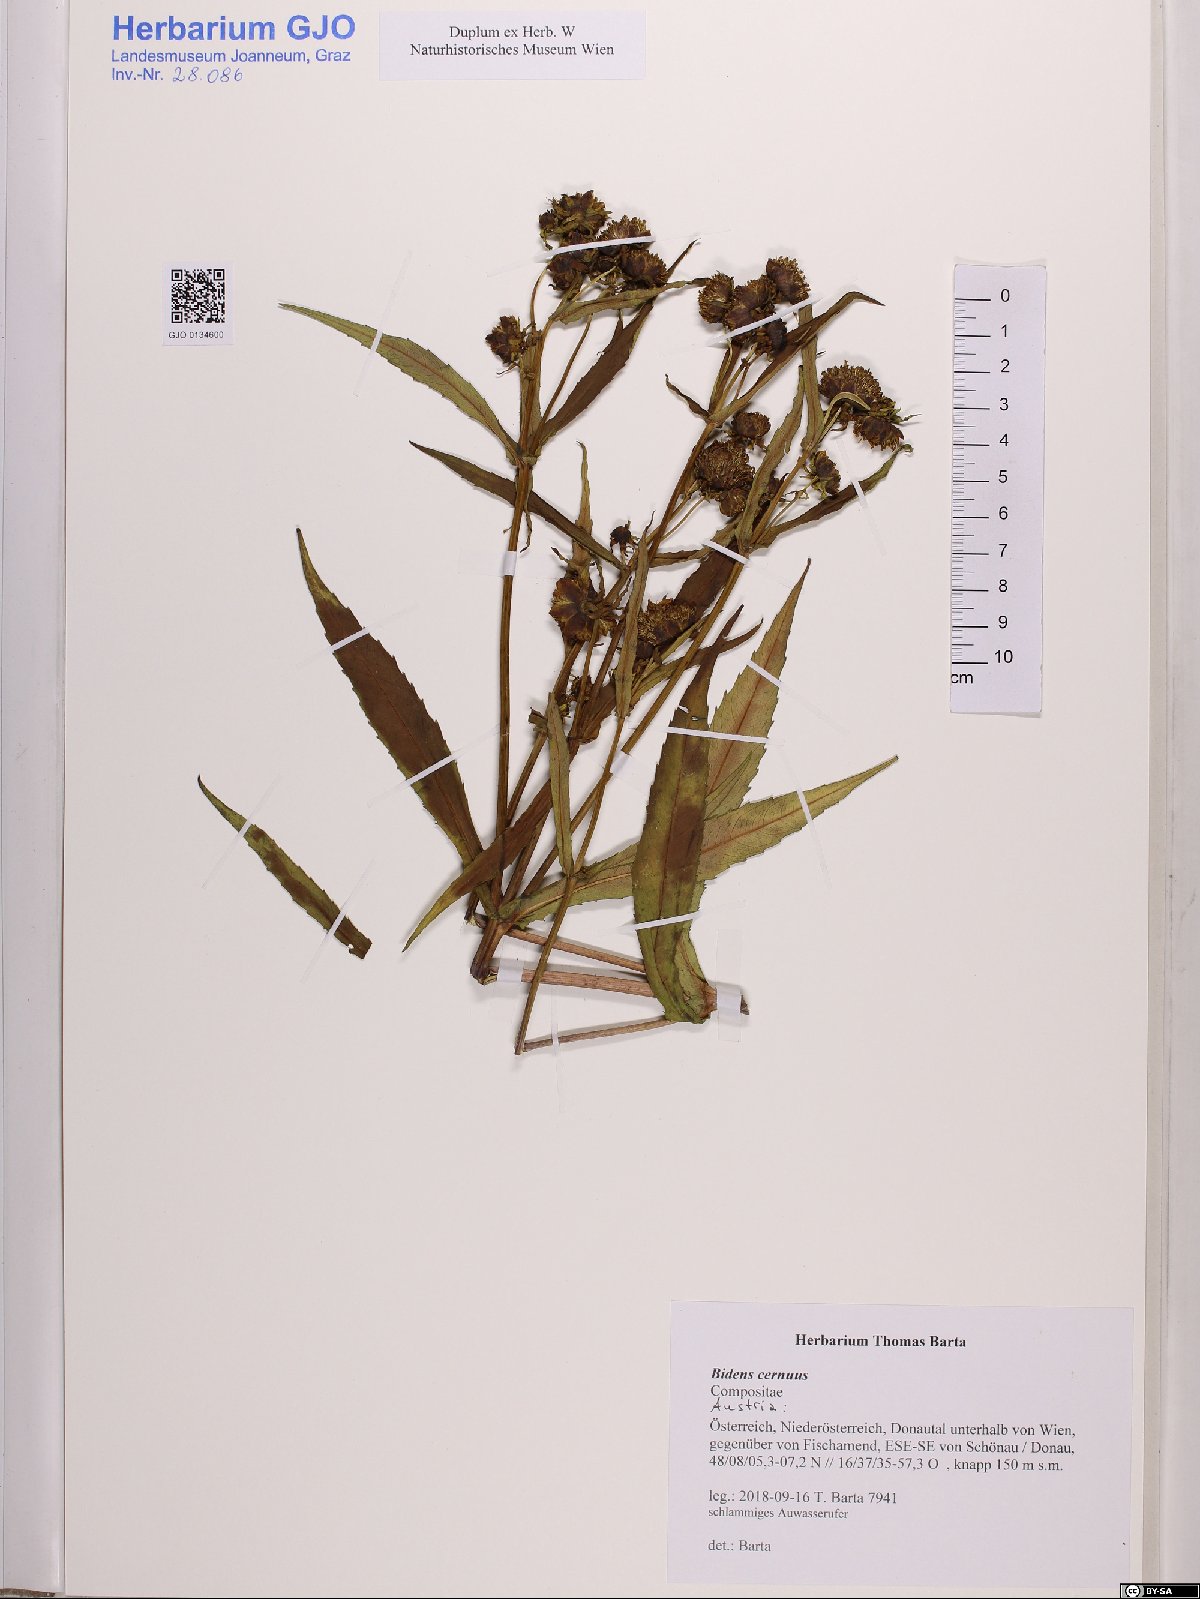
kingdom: Plantae
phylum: Tracheophyta
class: Magnoliopsida
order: Asterales
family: Asteraceae
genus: Bidens
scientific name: Bidens cernuus
